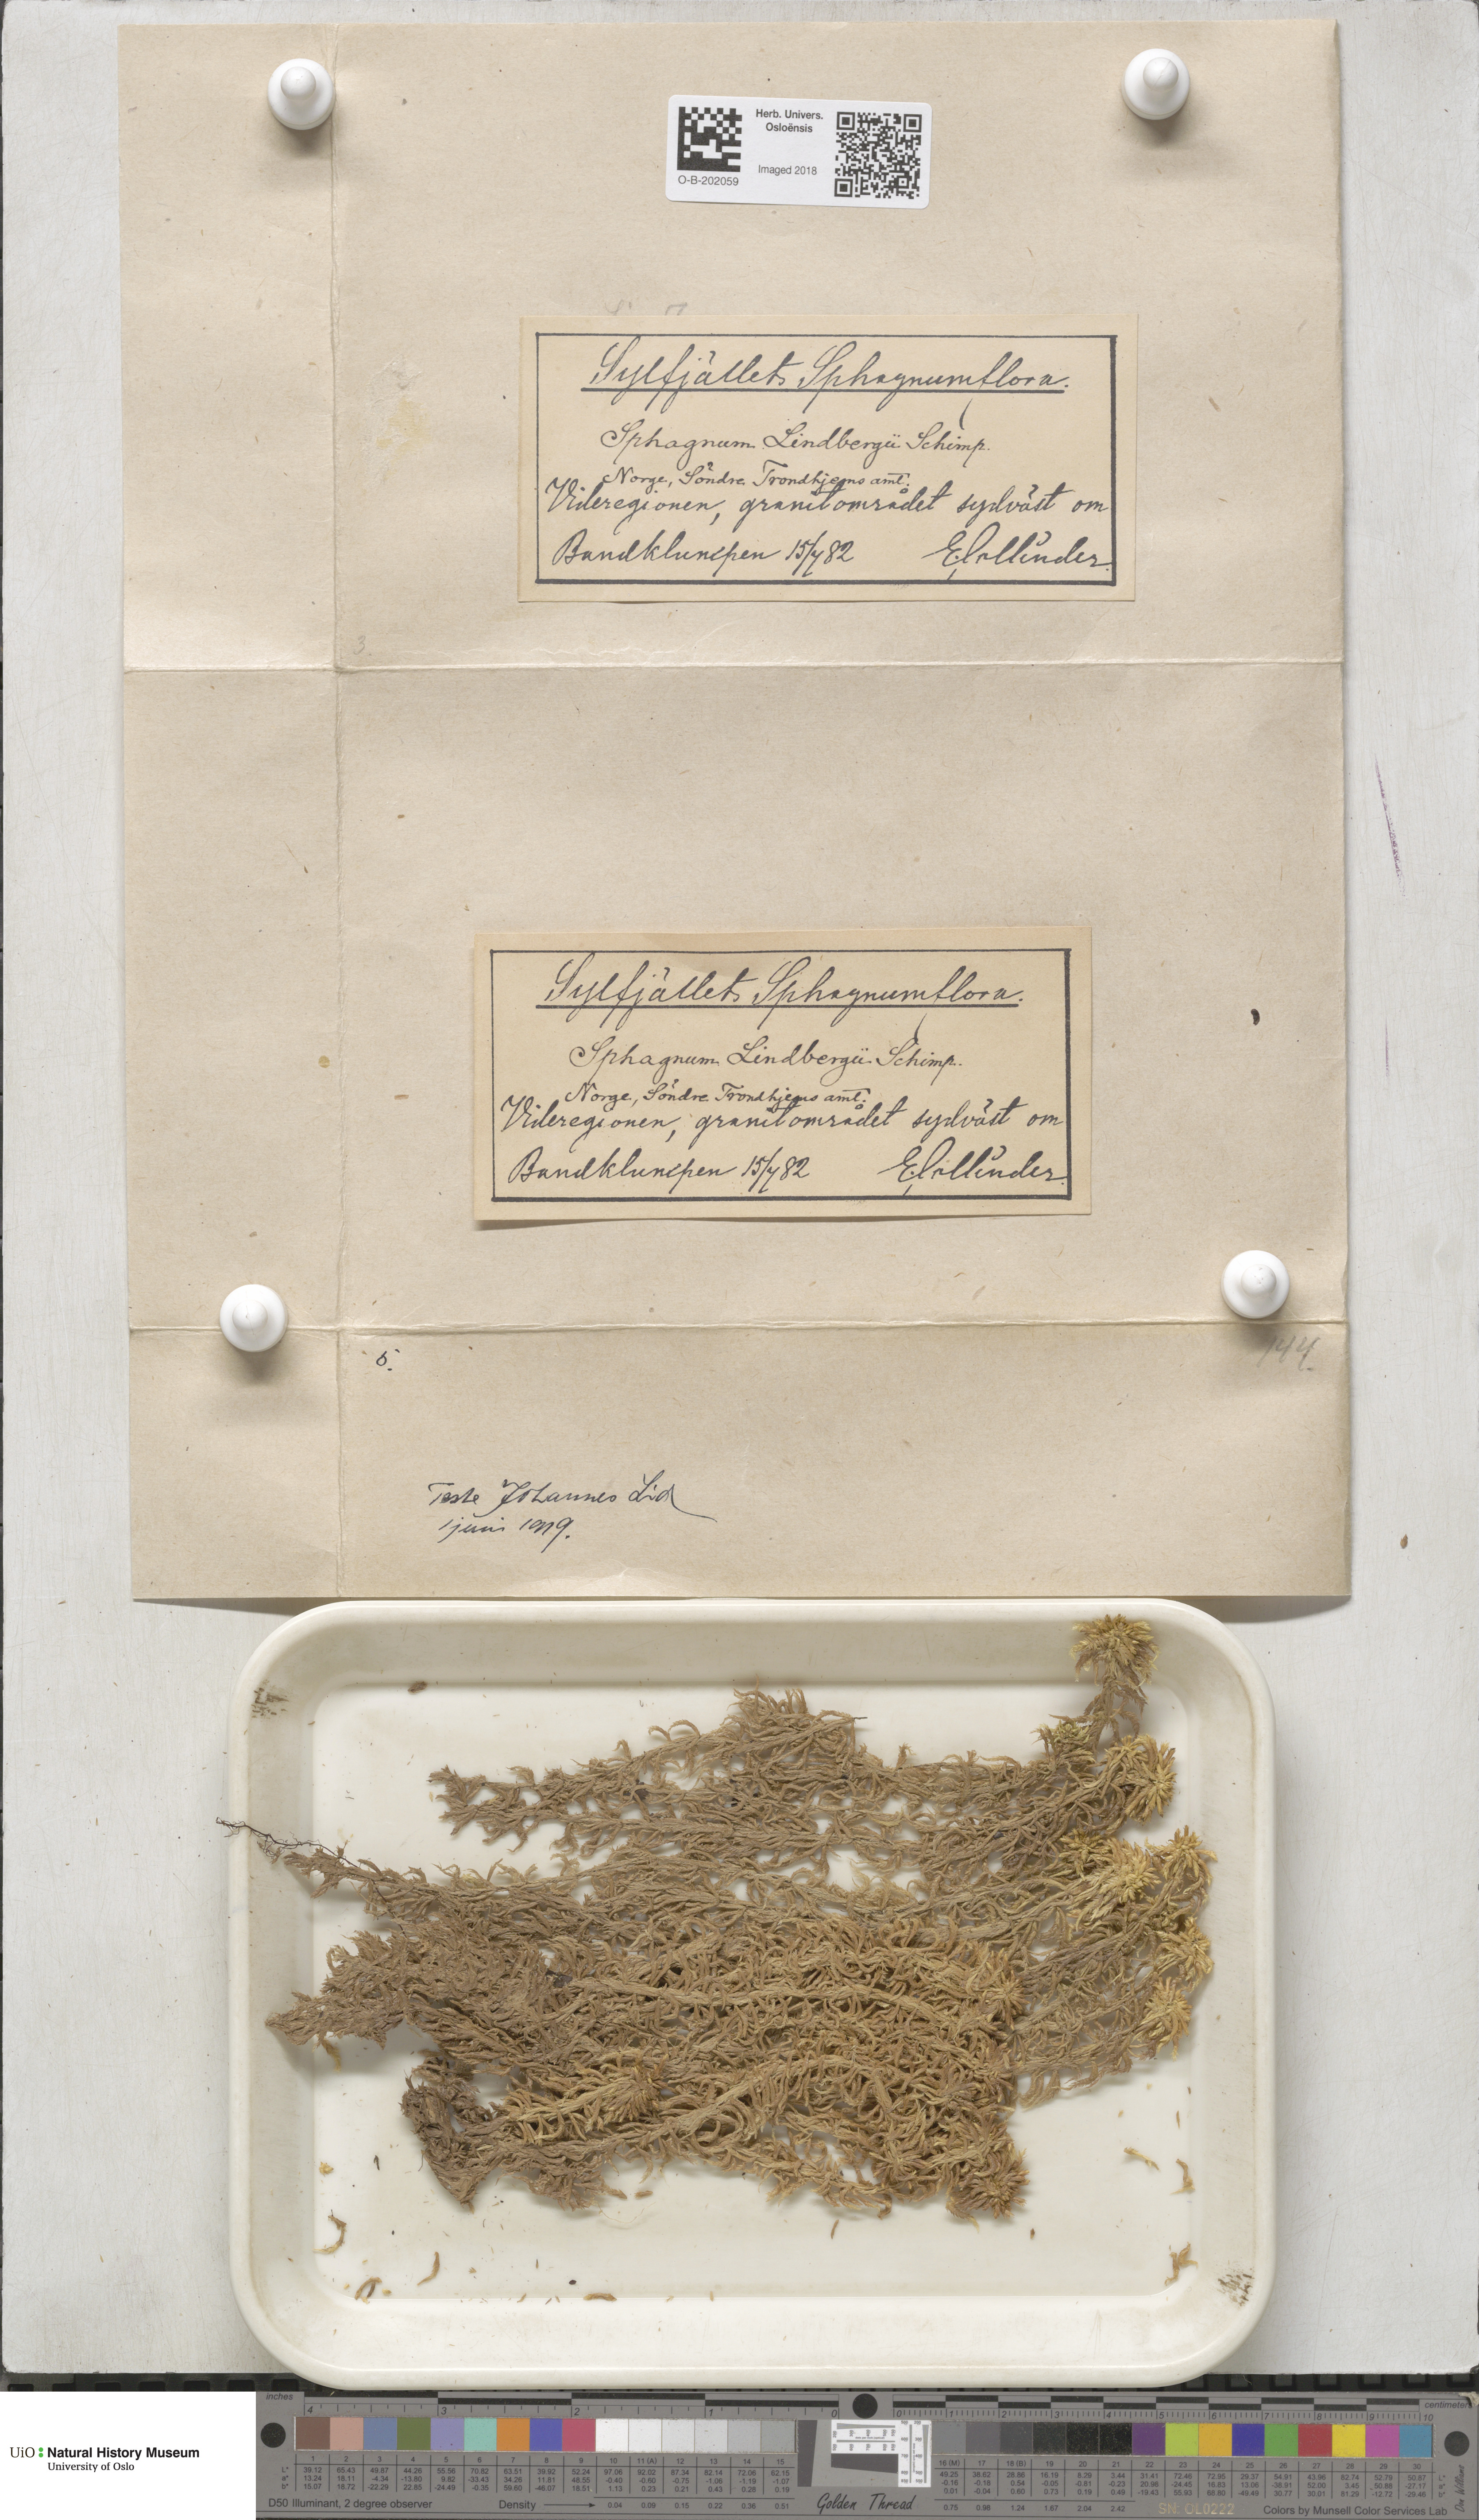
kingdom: Plantae
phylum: Bryophyta
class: Sphagnopsida
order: Sphagnales
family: Sphagnaceae
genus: Sphagnum
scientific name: Sphagnum lindbergii
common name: Lindberg's peat moss
